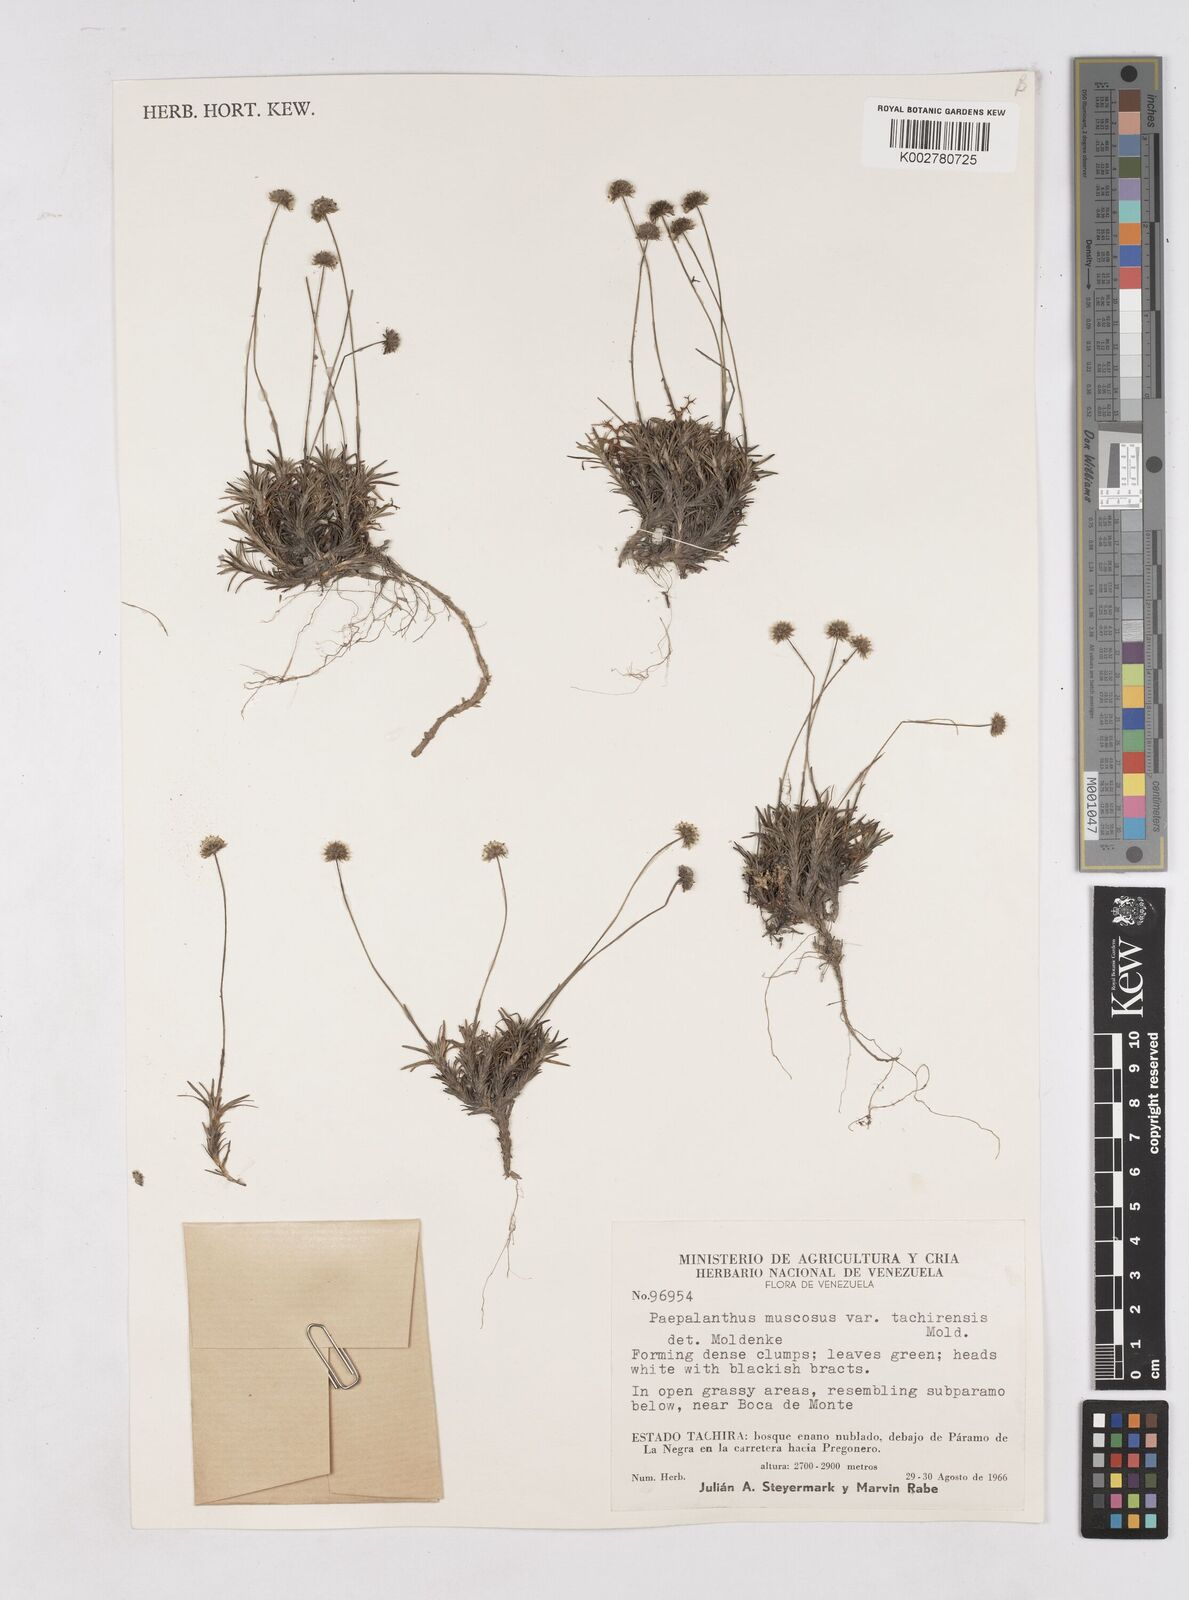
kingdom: Plantae
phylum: Tracheophyta
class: Liliopsida
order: Poales
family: Eriocaulaceae
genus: Paepalanthus
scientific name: Paepalanthus muscosus
